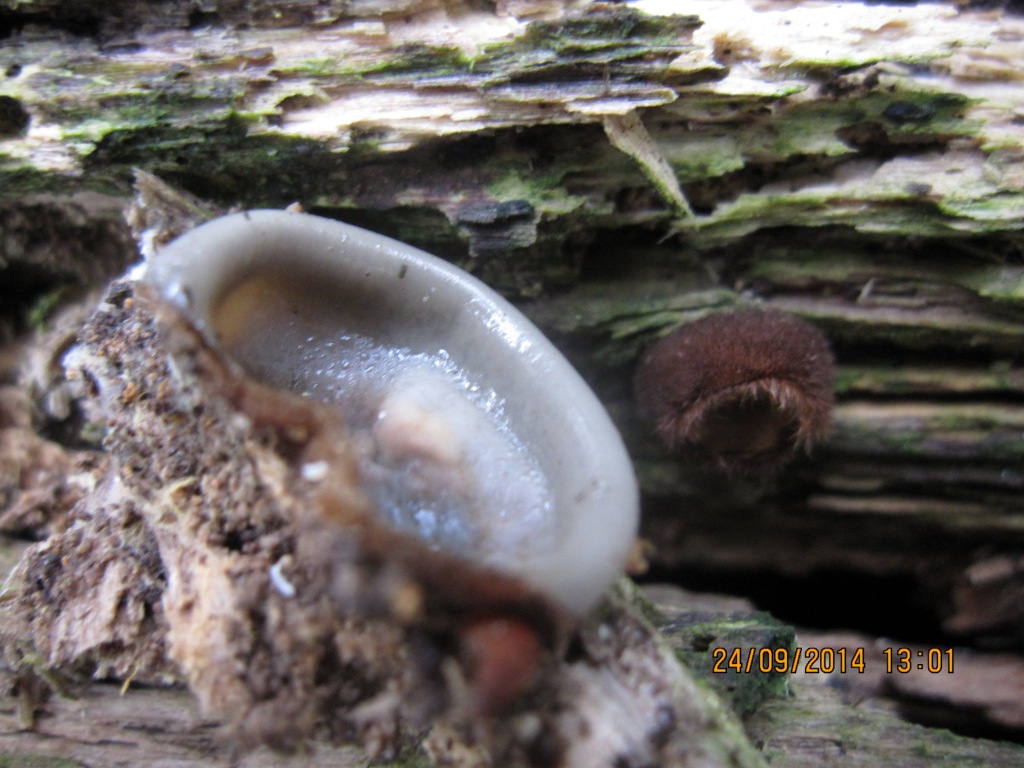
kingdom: Fungi
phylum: Ascomycota
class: Pezizomycetes
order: Pezizales
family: Pyronemataceae
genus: Humaria
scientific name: Humaria hemisphaerica
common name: halvkugleformet børstebæger
